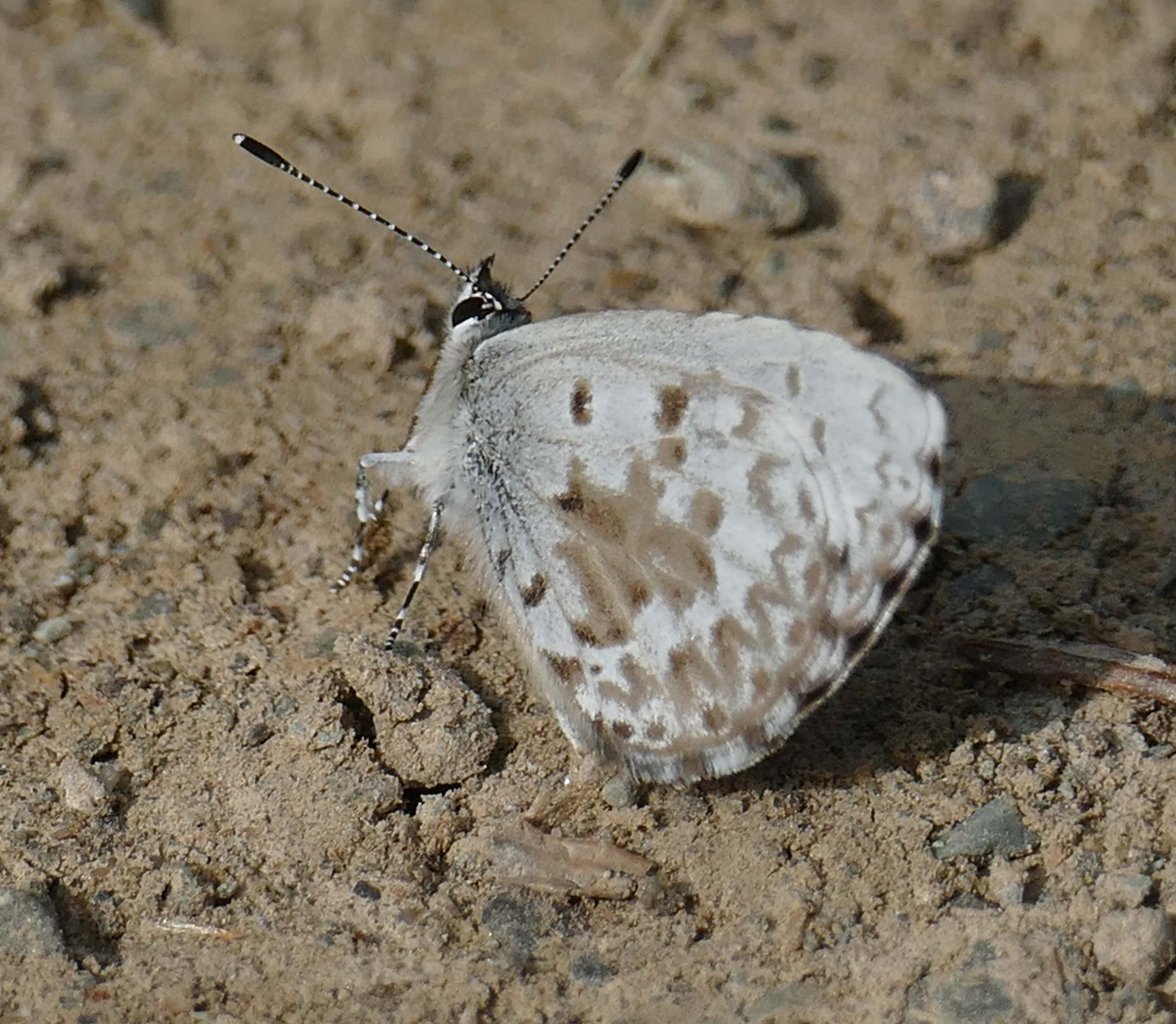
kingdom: Animalia
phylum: Arthropoda
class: Insecta
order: Lepidoptera
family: Lycaenidae
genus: Celastrina
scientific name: Celastrina lucia
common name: Northern Spring Azure
